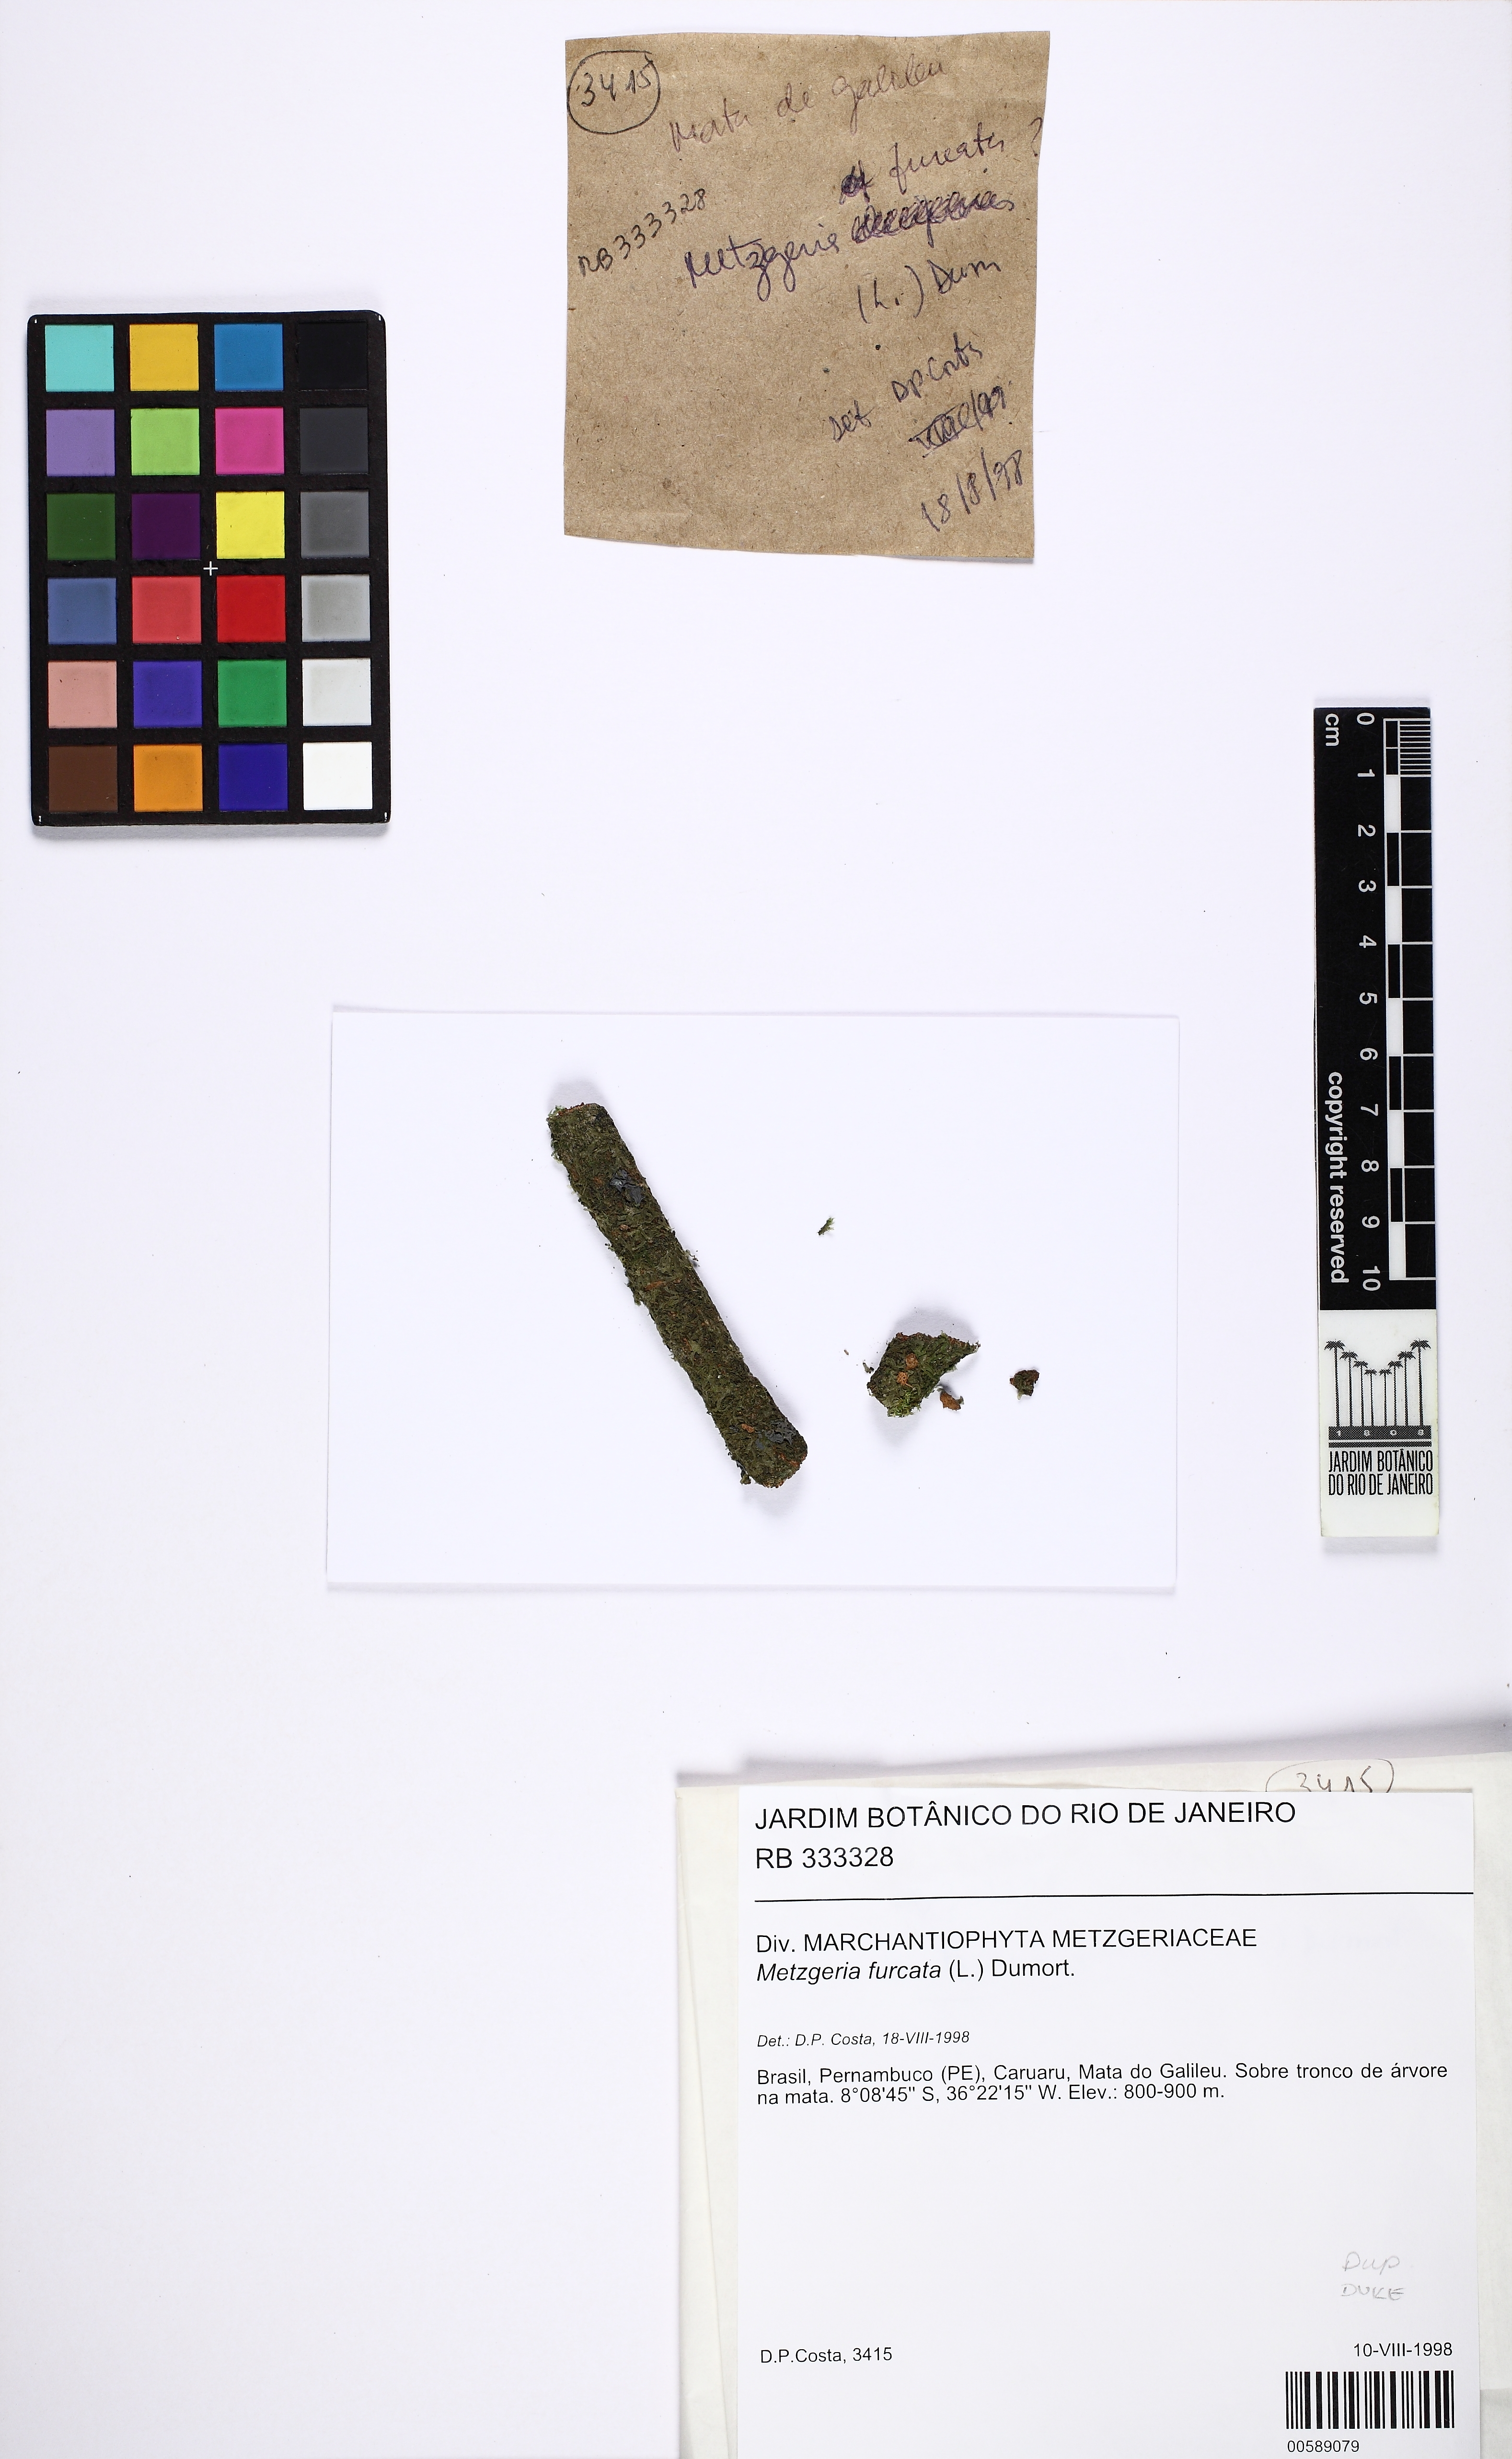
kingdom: Plantae
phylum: Marchantiophyta
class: Jungermanniopsida
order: Metzgeriales
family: Metzgeriaceae
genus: Metzgeria
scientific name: Metzgeria furcata
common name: Forked veilwort
